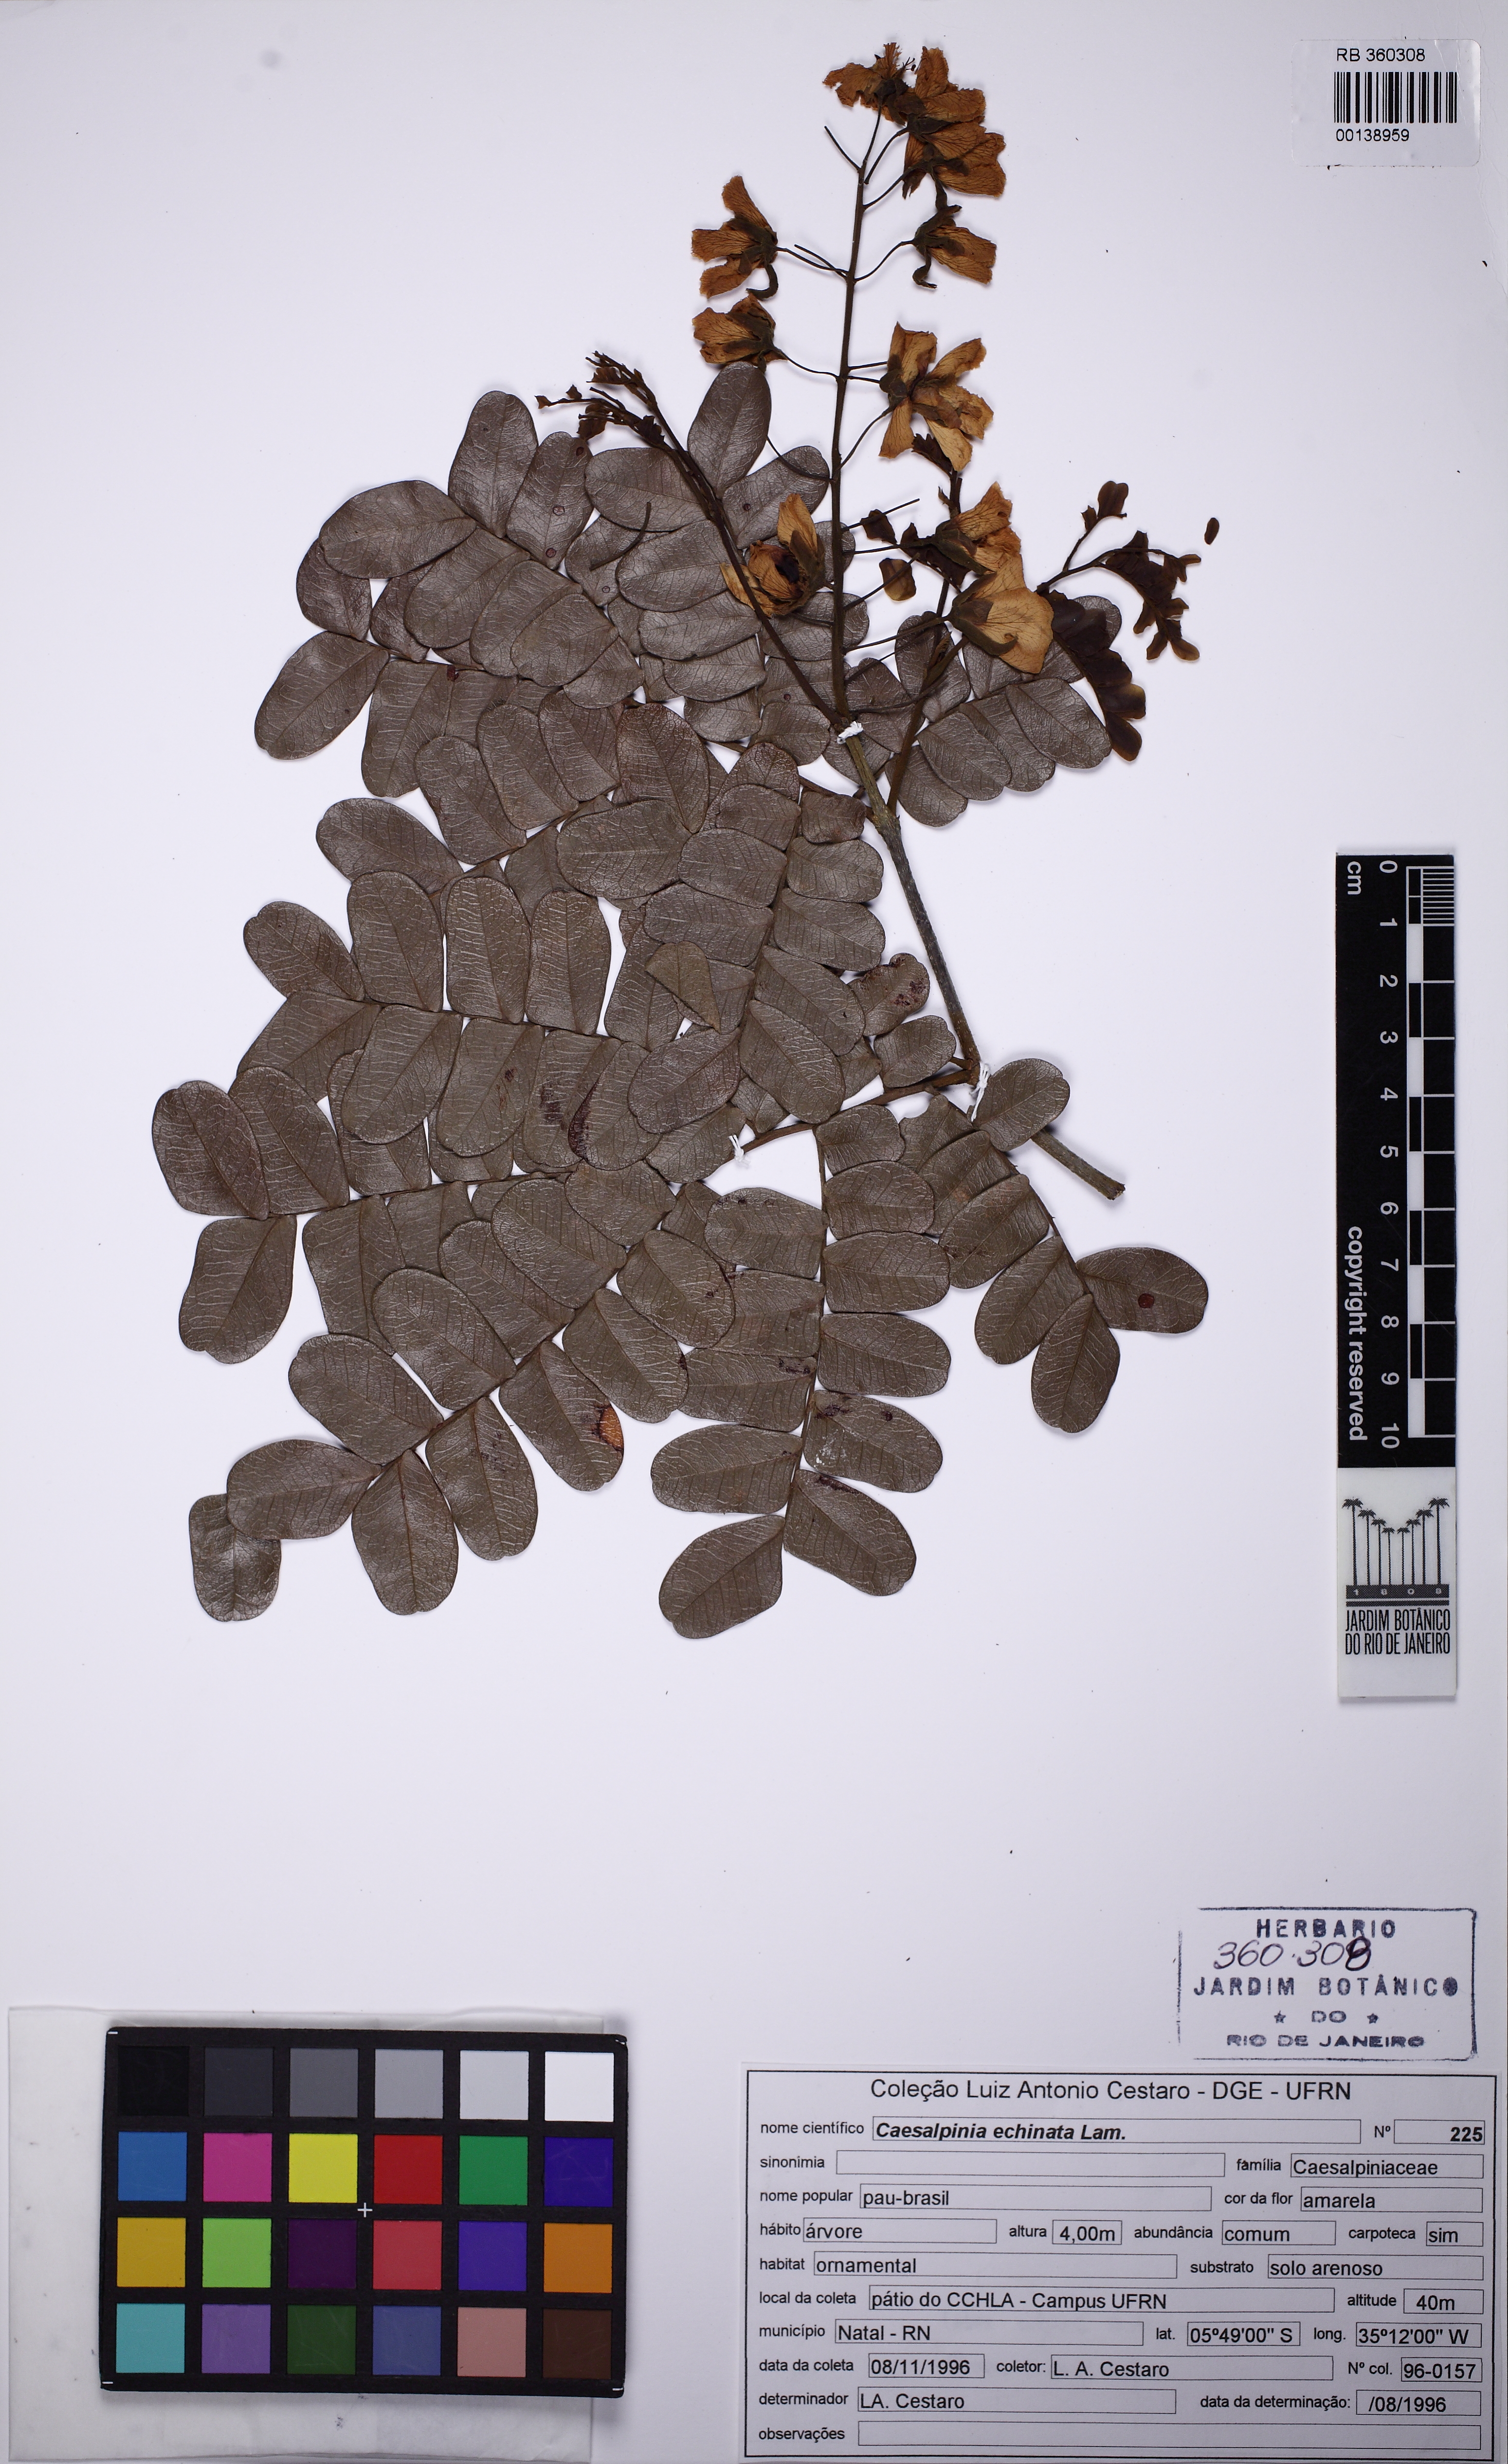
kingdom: Plantae
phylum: Tracheophyta
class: Magnoliopsida
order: Fabales
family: Fabaceae
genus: Paubrasilia
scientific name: Paubrasilia echinata
